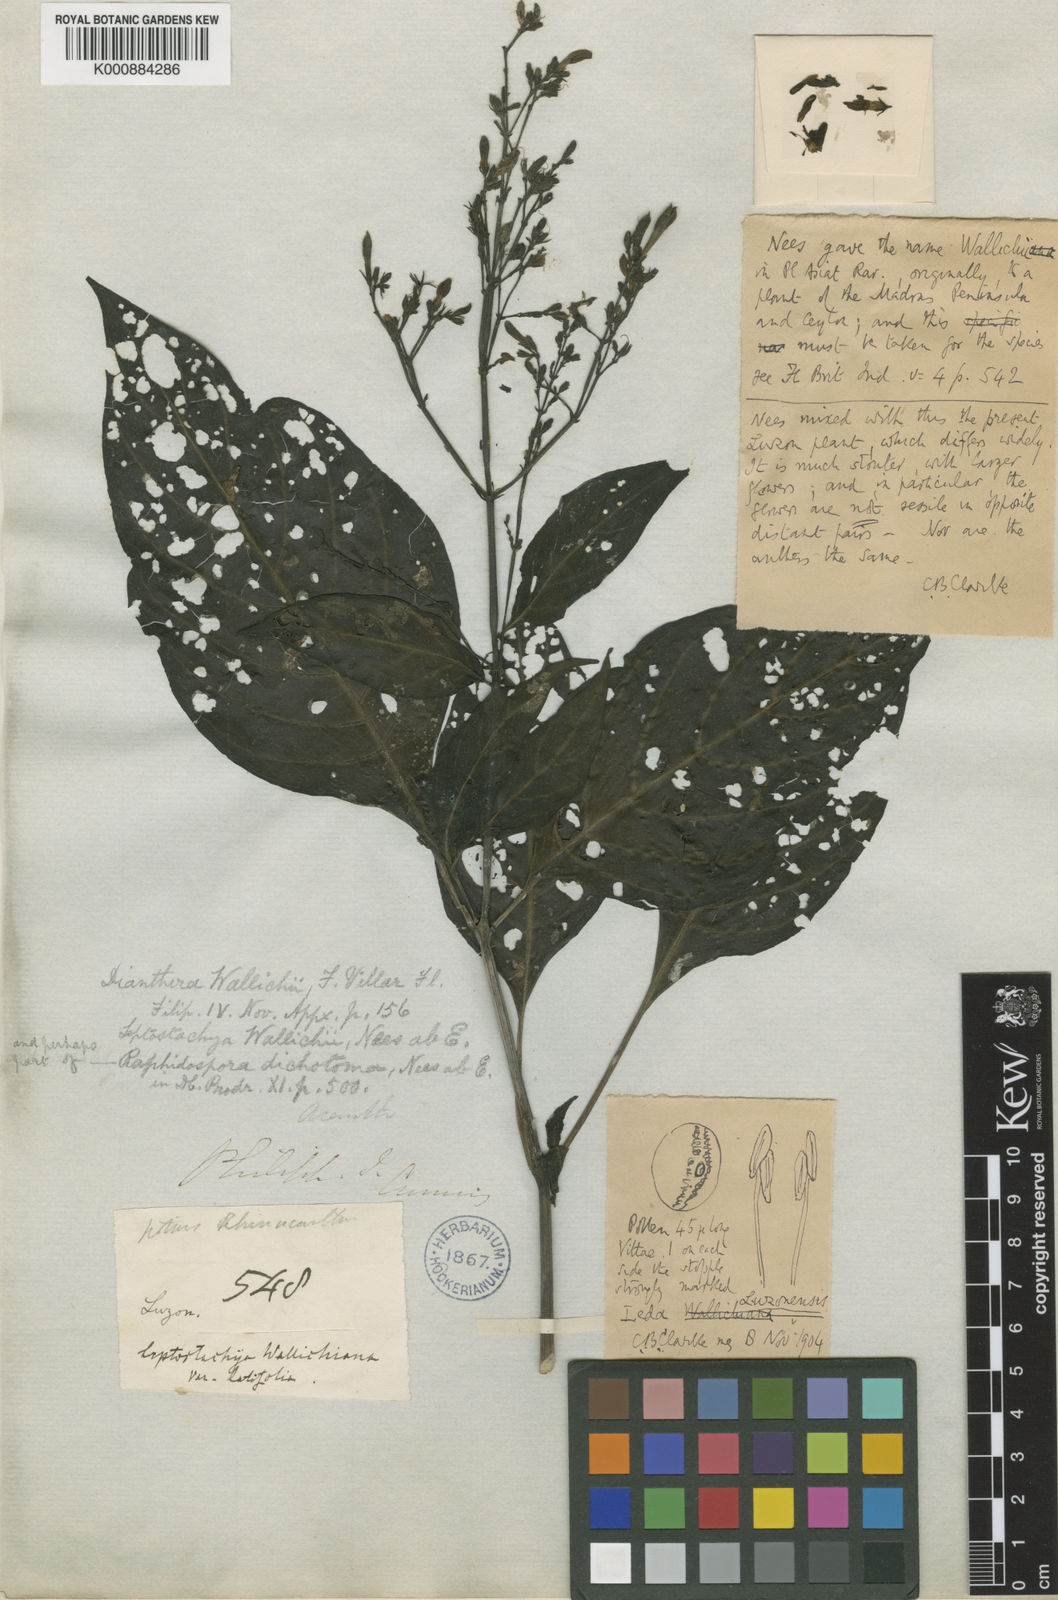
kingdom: Plantae
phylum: Tracheophyta
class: Magnoliopsida
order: Lamiales
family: Acanthaceae
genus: Rhaphidospora
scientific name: Rhaphidospora luzonensis
